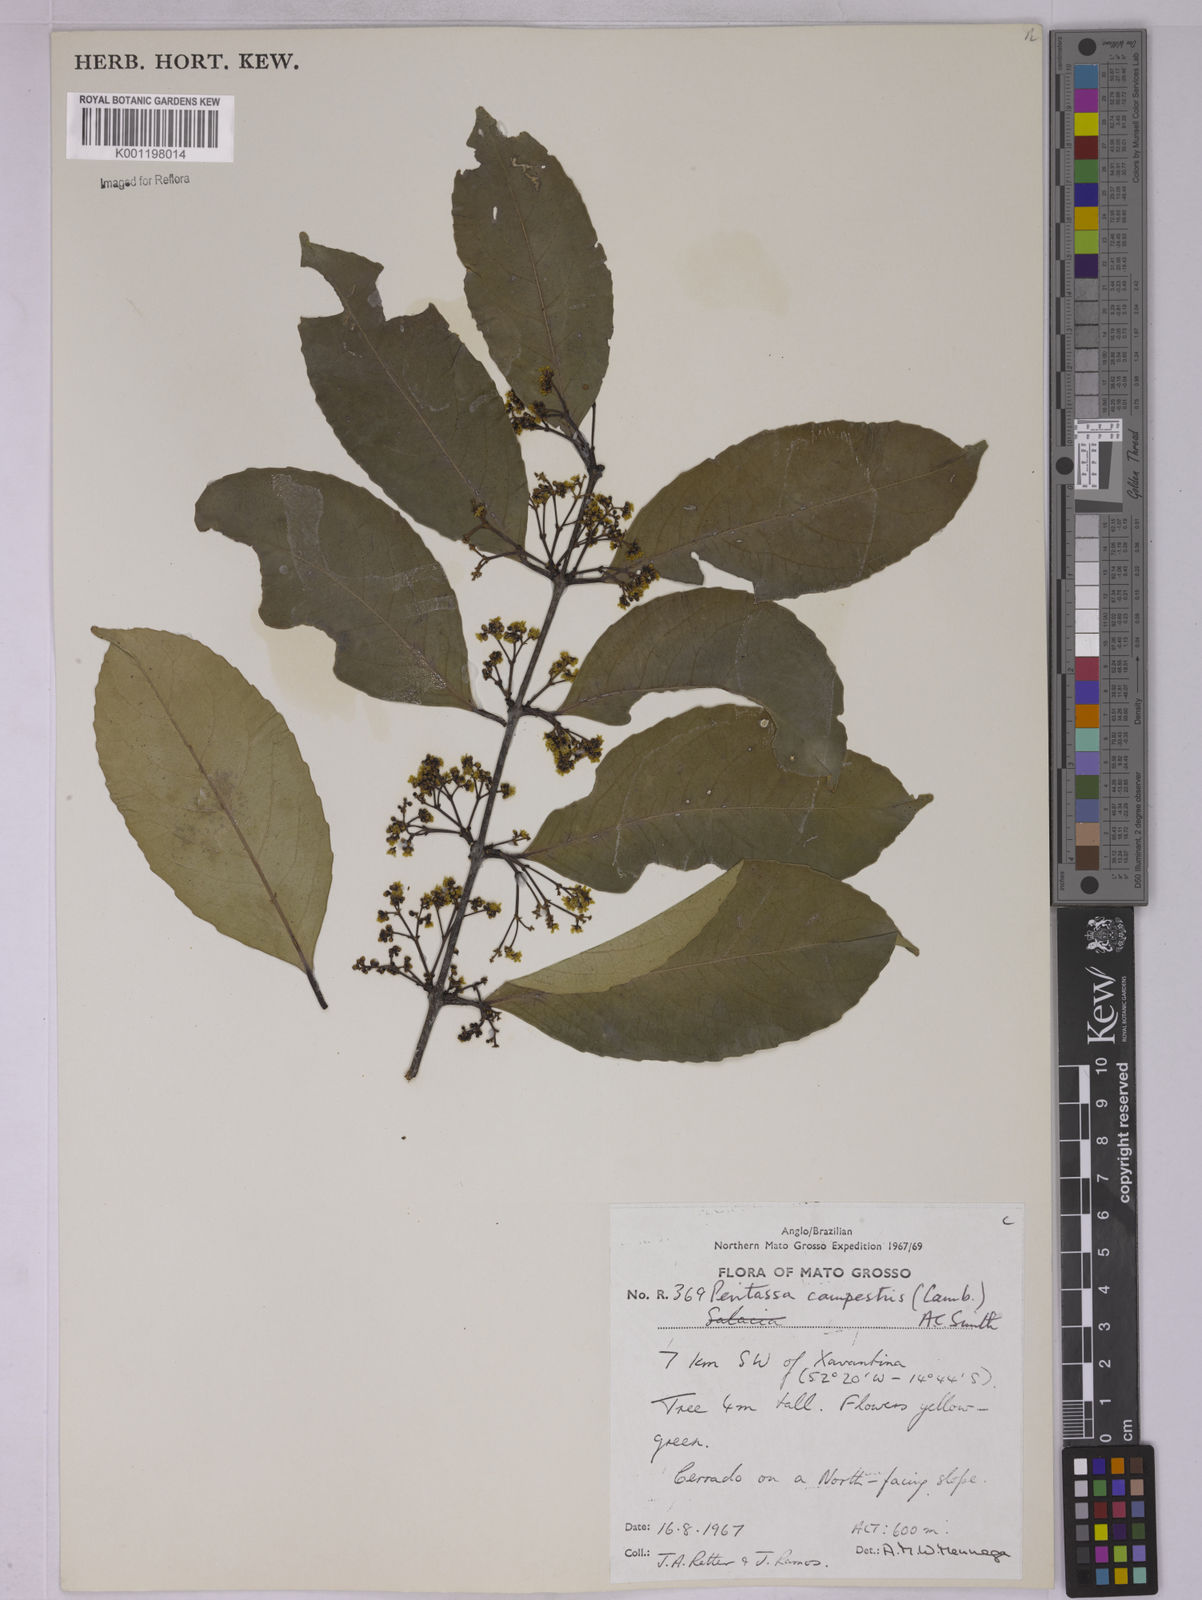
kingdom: Plantae
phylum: Tracheophyta
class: Magnoliopsida
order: Celastrales
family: Celastraceae
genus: Peritassa
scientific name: Peritassa campestris
